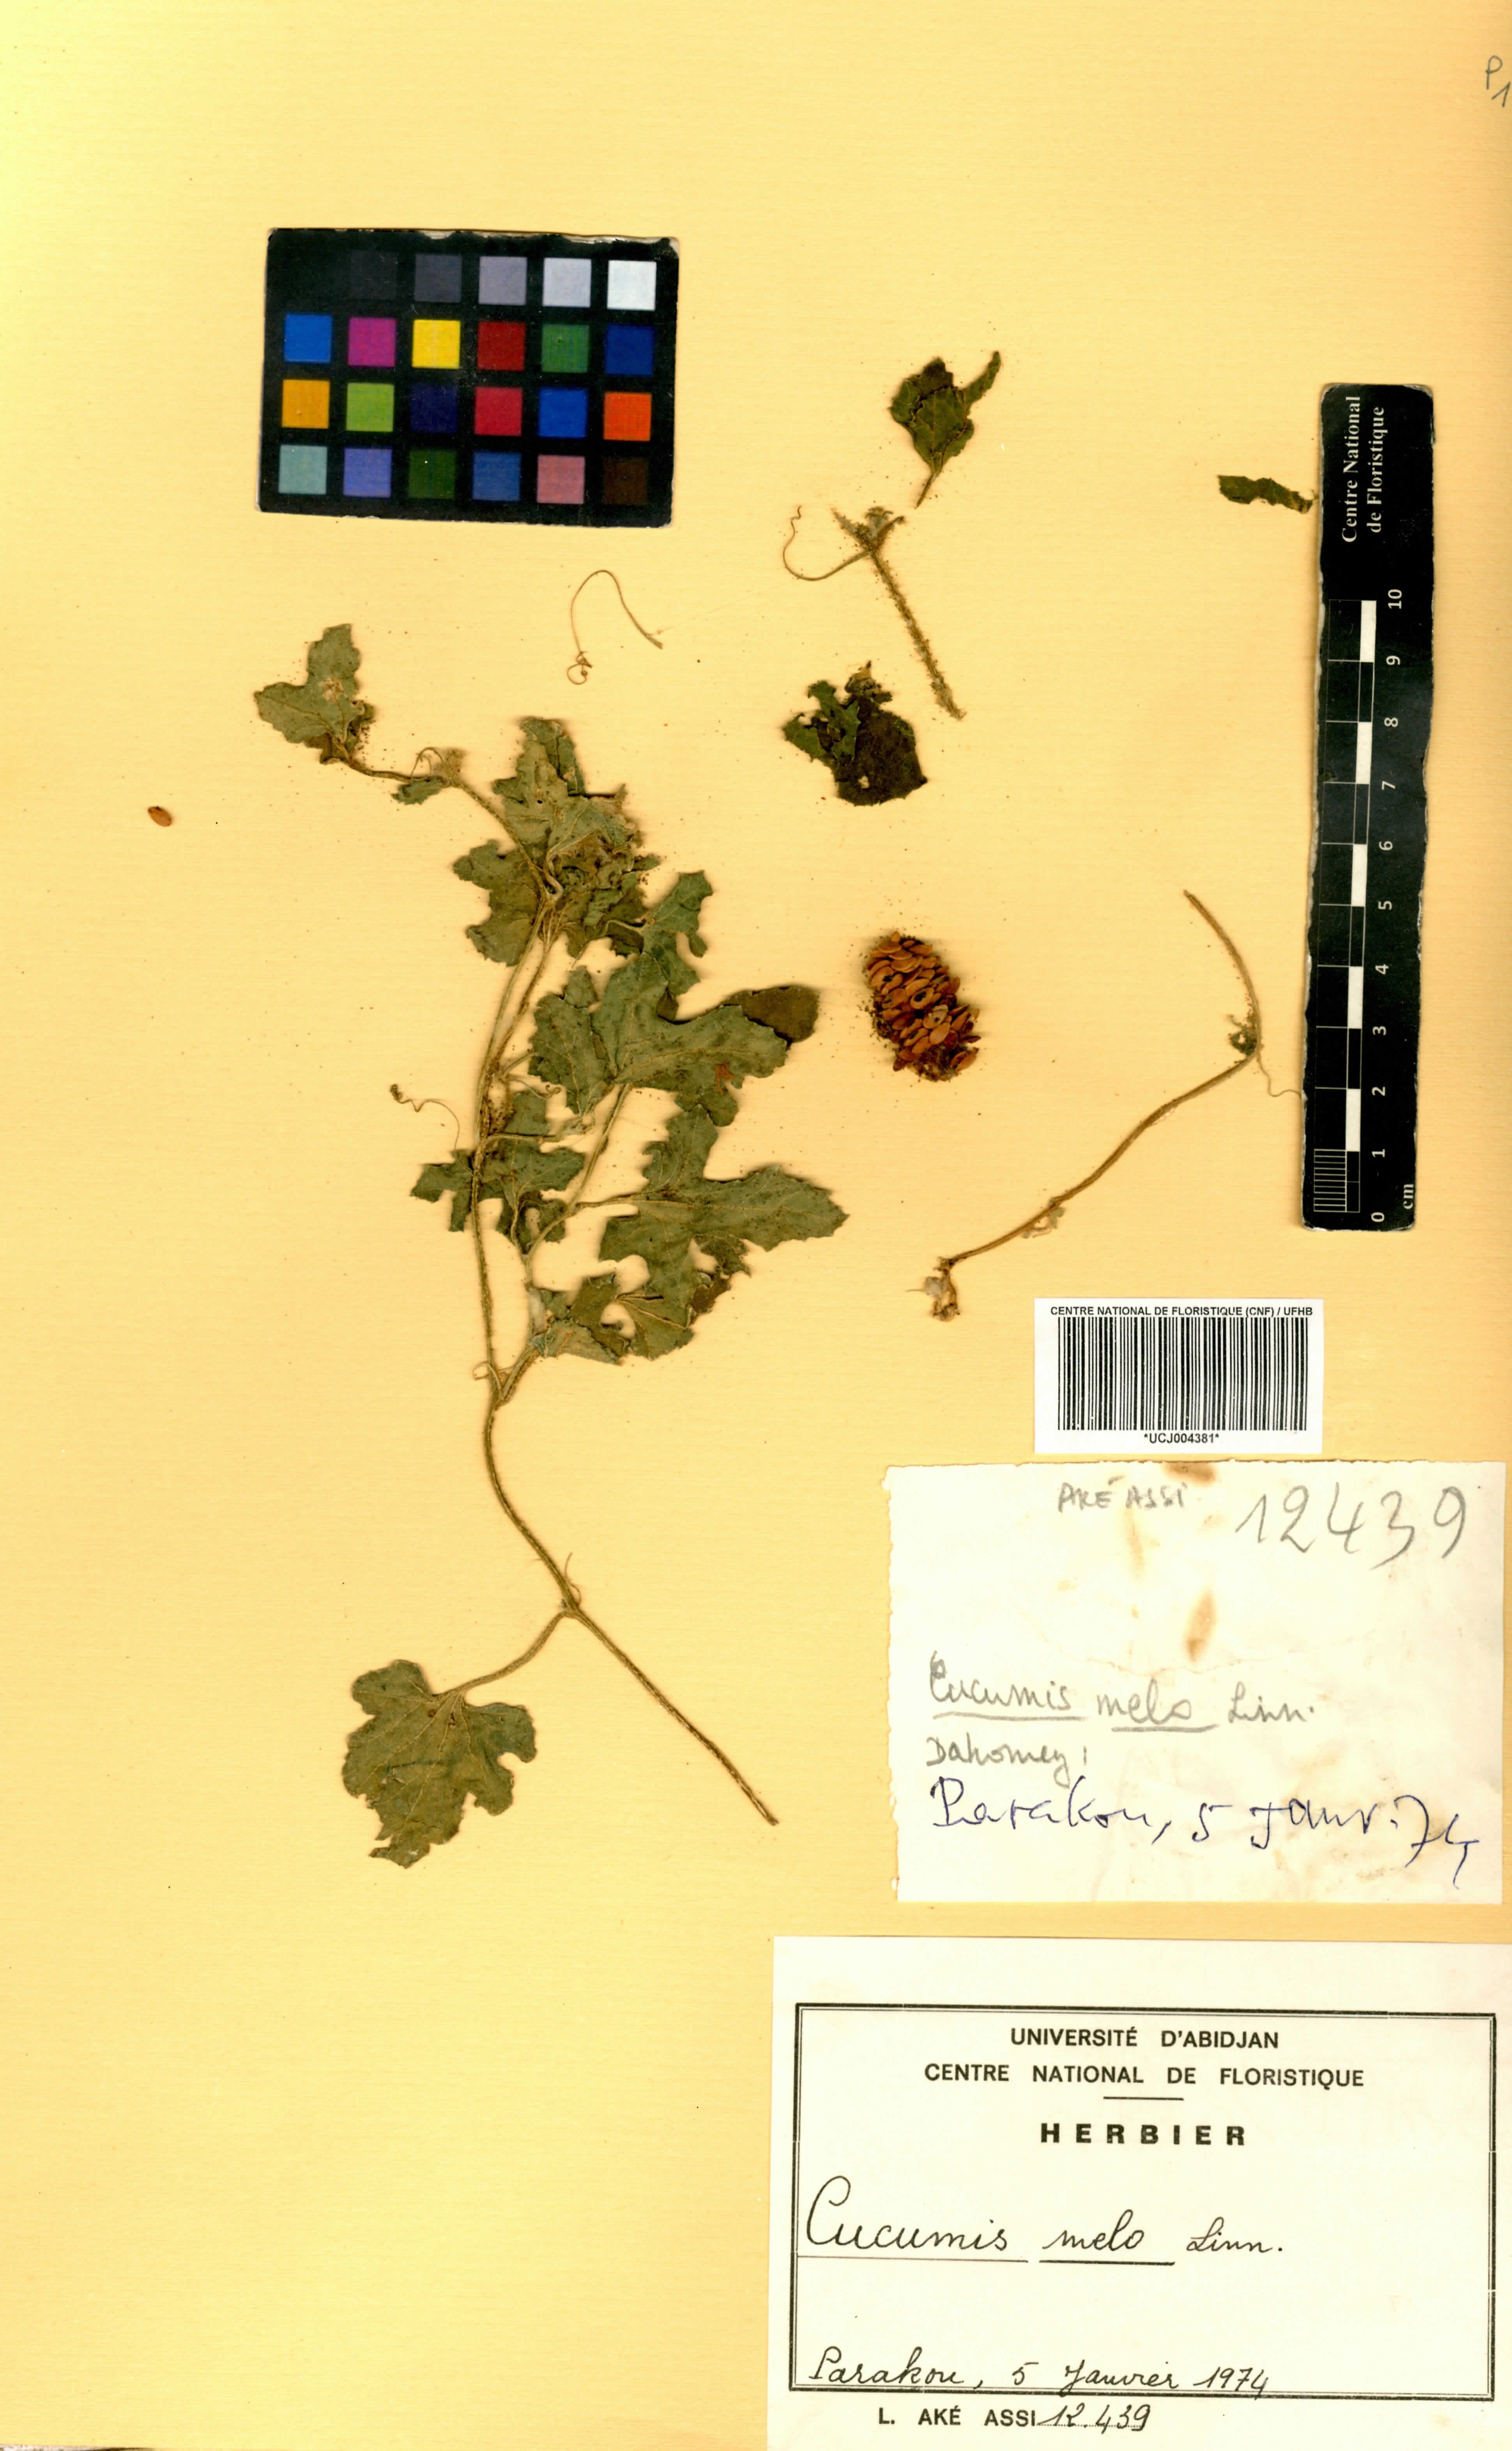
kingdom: Plantae
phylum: Tracheophyta
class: Magnoliopsida
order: Cucurbitales
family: Cucurbitaceae
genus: Cucumis
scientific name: Cucumis melo
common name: Melon
